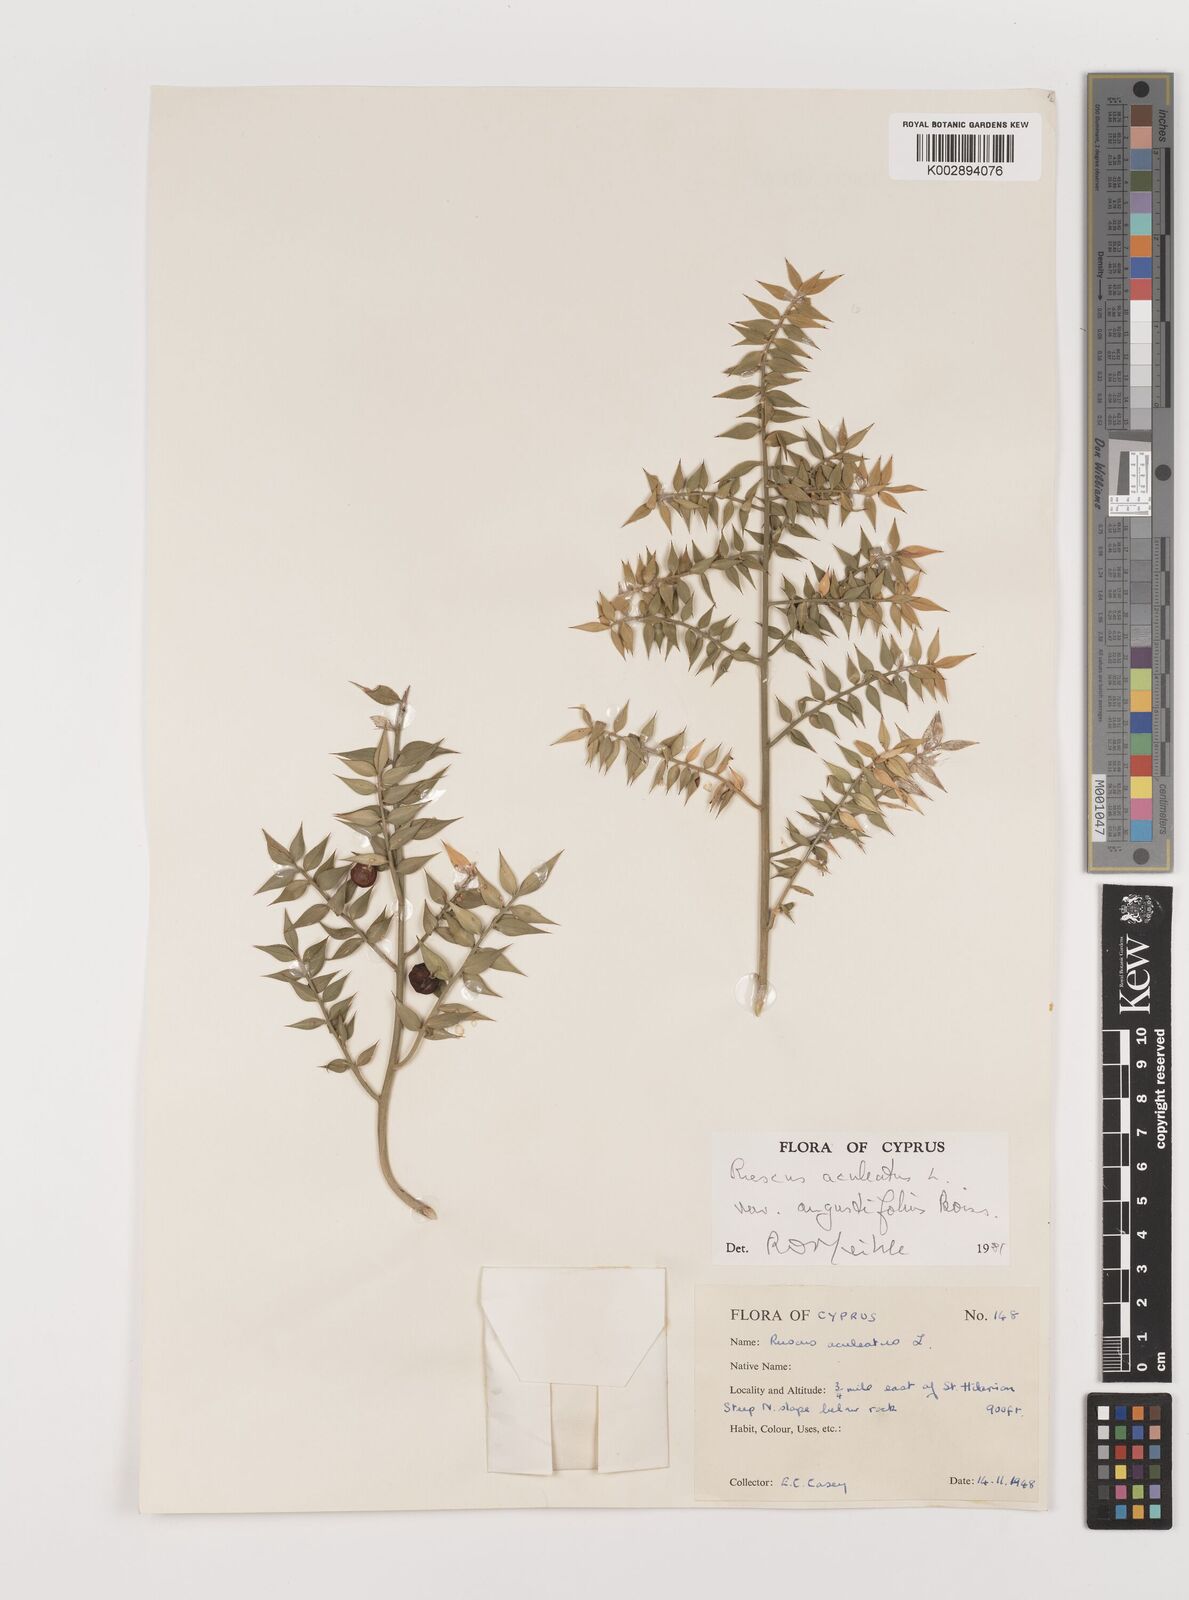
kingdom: Plantae
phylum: Tracheophyta
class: Liliopsida
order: Asparagales
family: Asparagaceae
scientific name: Asparagaceae
